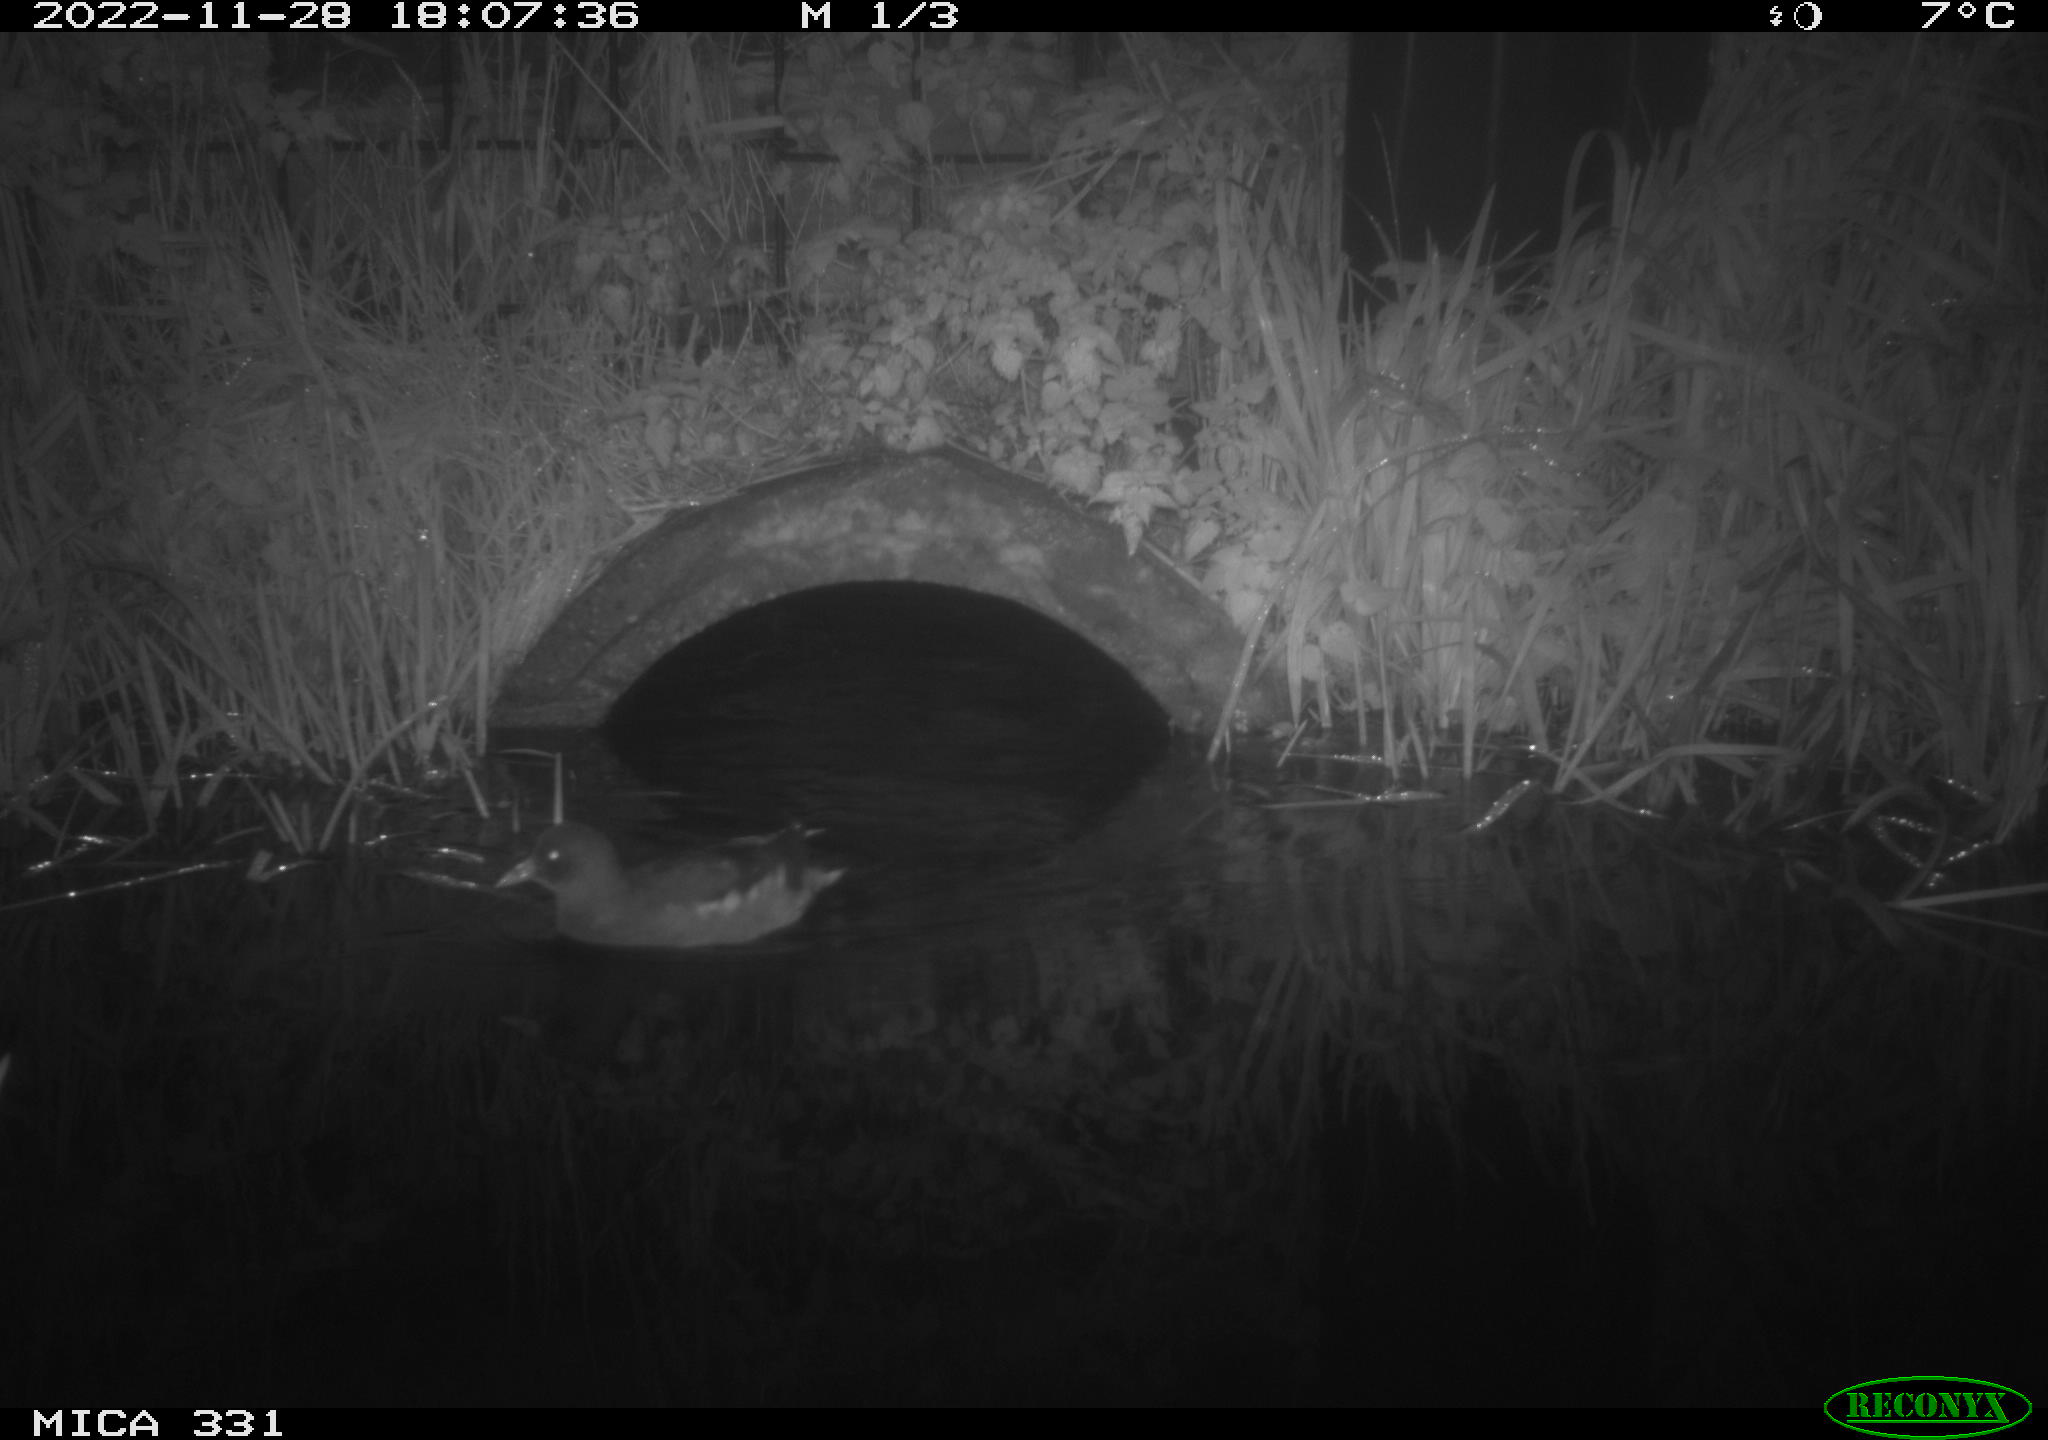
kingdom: Animalia
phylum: Chordata
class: Aves
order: Gruiformes
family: Rallidae
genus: Gallinula
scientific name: Gallinula chloropus
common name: Common moorhen
